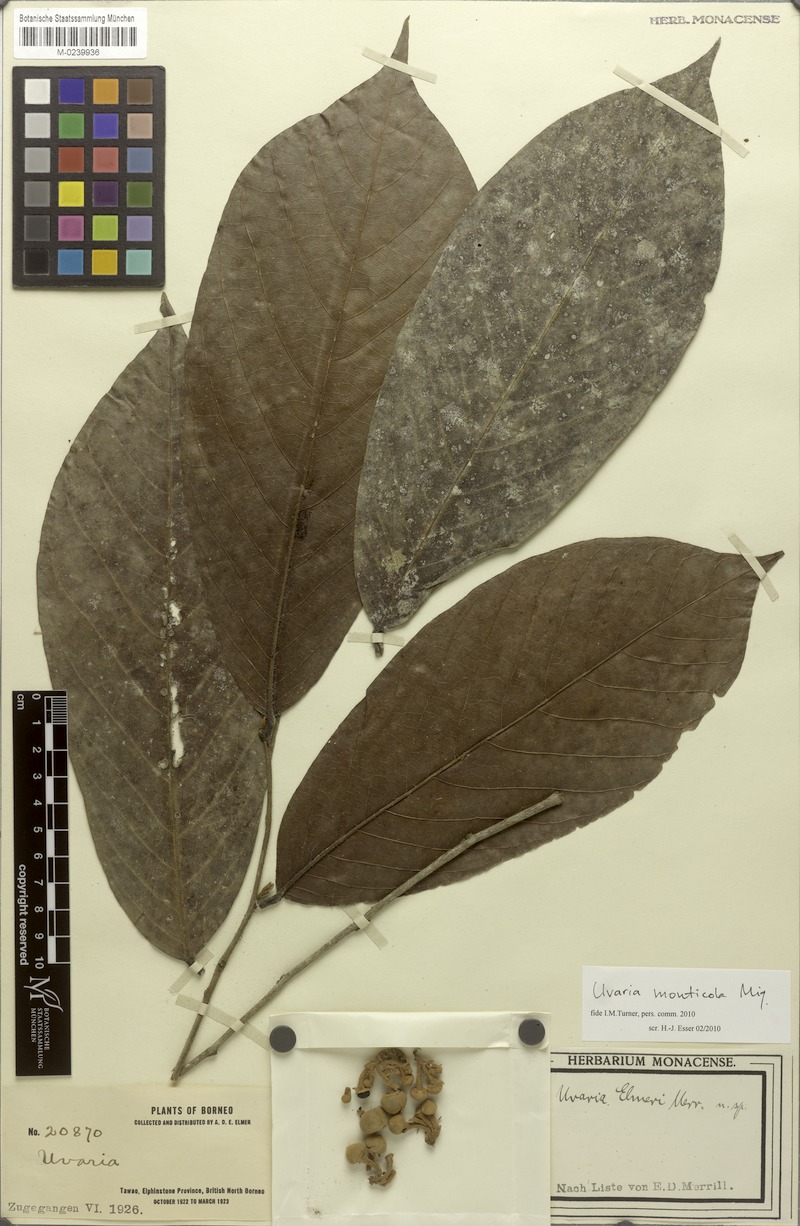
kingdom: Plantae
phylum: Tracheophyta
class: Magnoliopsida
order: Magnoliales
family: Annonaceae
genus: Uvaria
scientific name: Uvaria monticola
